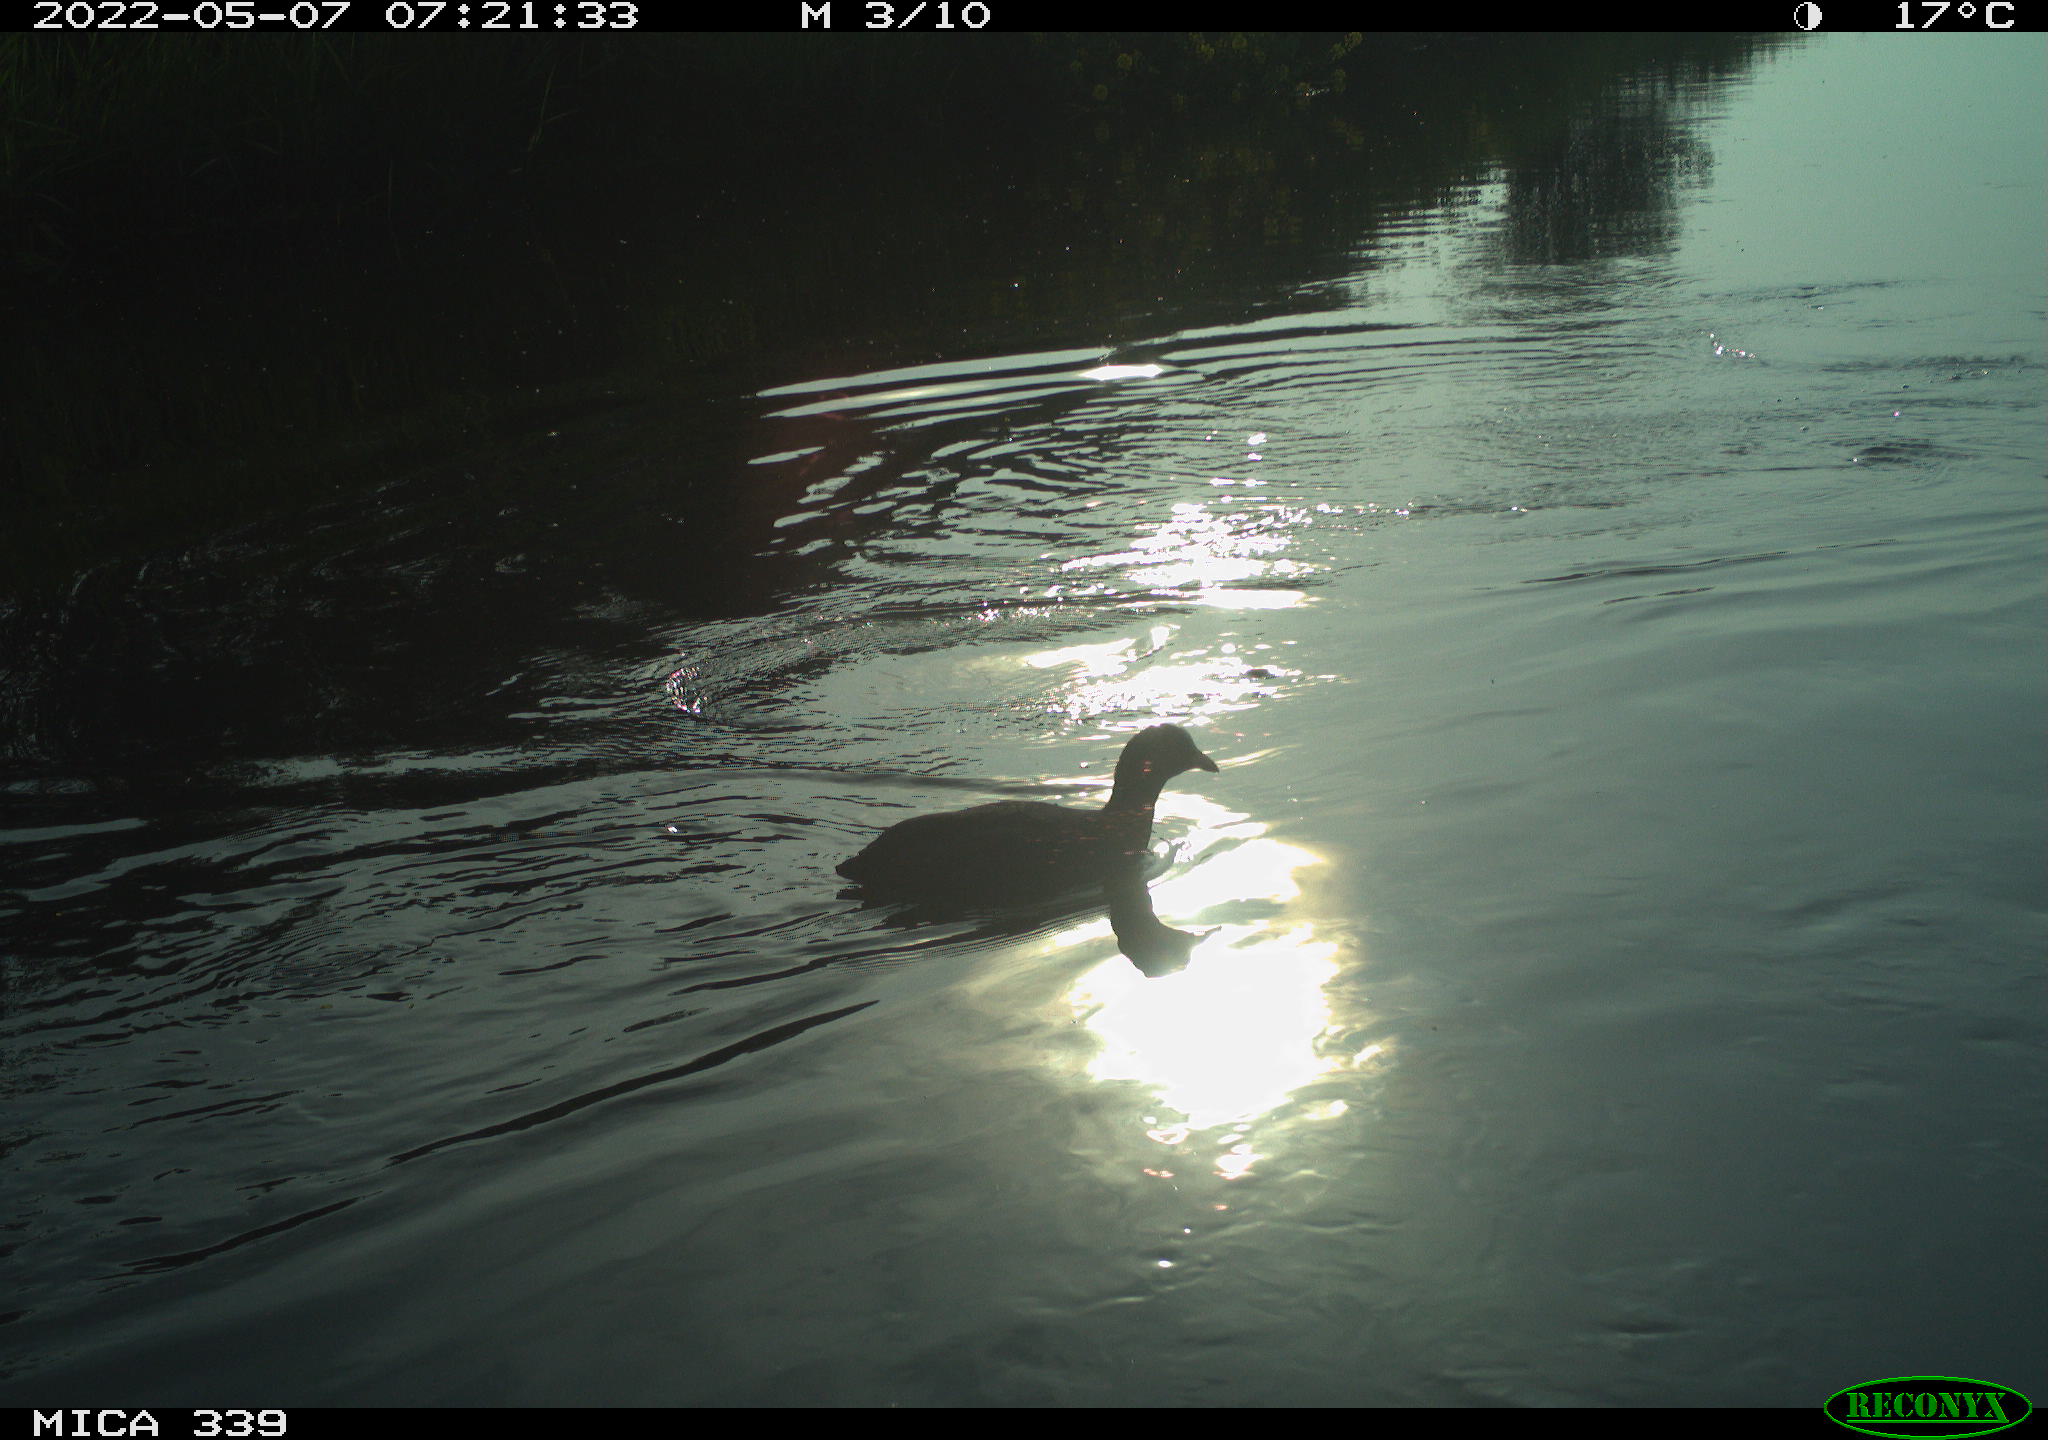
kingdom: Animalia
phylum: Chordata
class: Aves
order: Gruiformes
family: Rallidae
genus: Gallinula
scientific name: Gallinula chloropus
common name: Common moorhen
